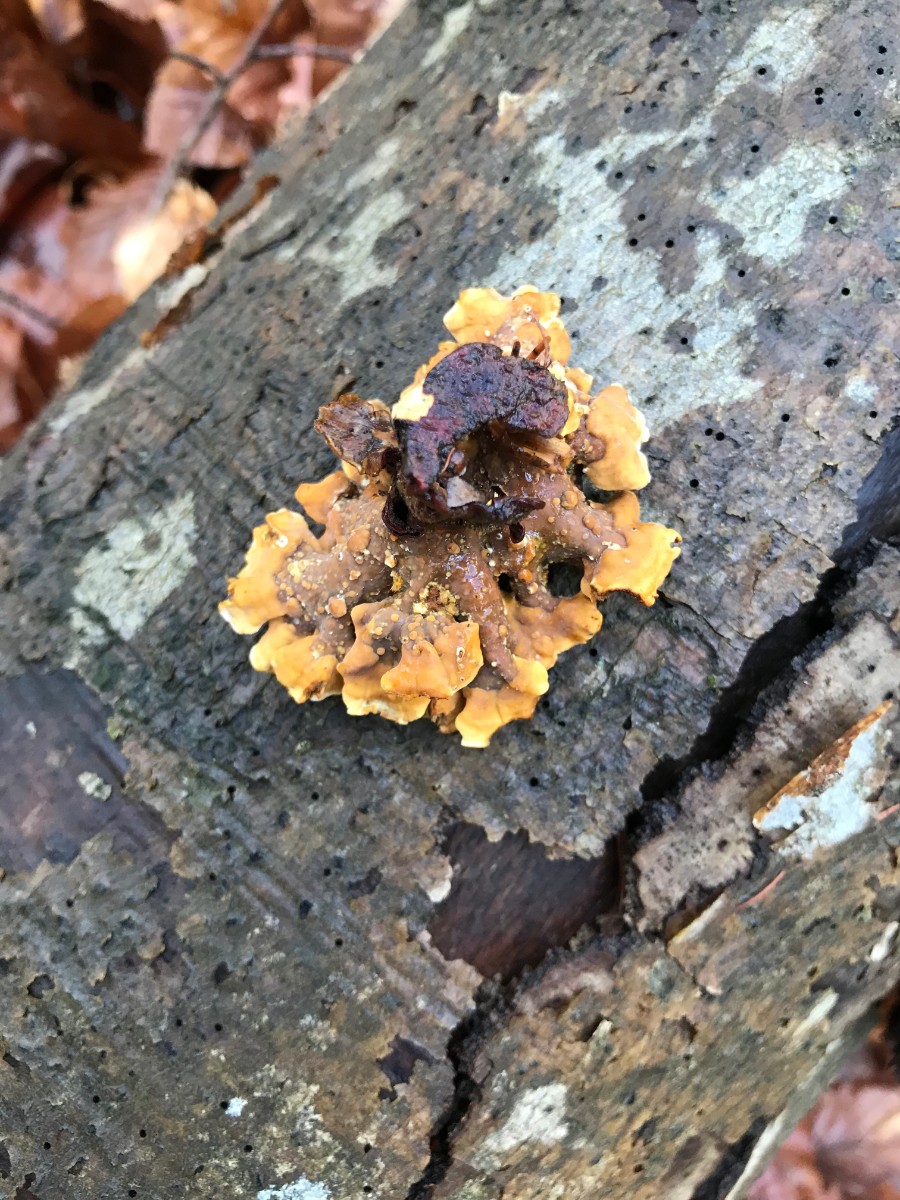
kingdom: Fungi
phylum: Basidiomycota
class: Agaricomycetes
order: Russulales
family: Stereaceae
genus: Stereum
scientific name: Stereum hirsutum
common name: håret lædersvamp
